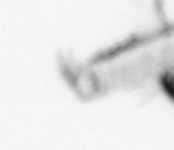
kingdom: Animalia
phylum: Annelida
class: Polychaeta
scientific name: Polychaeta
